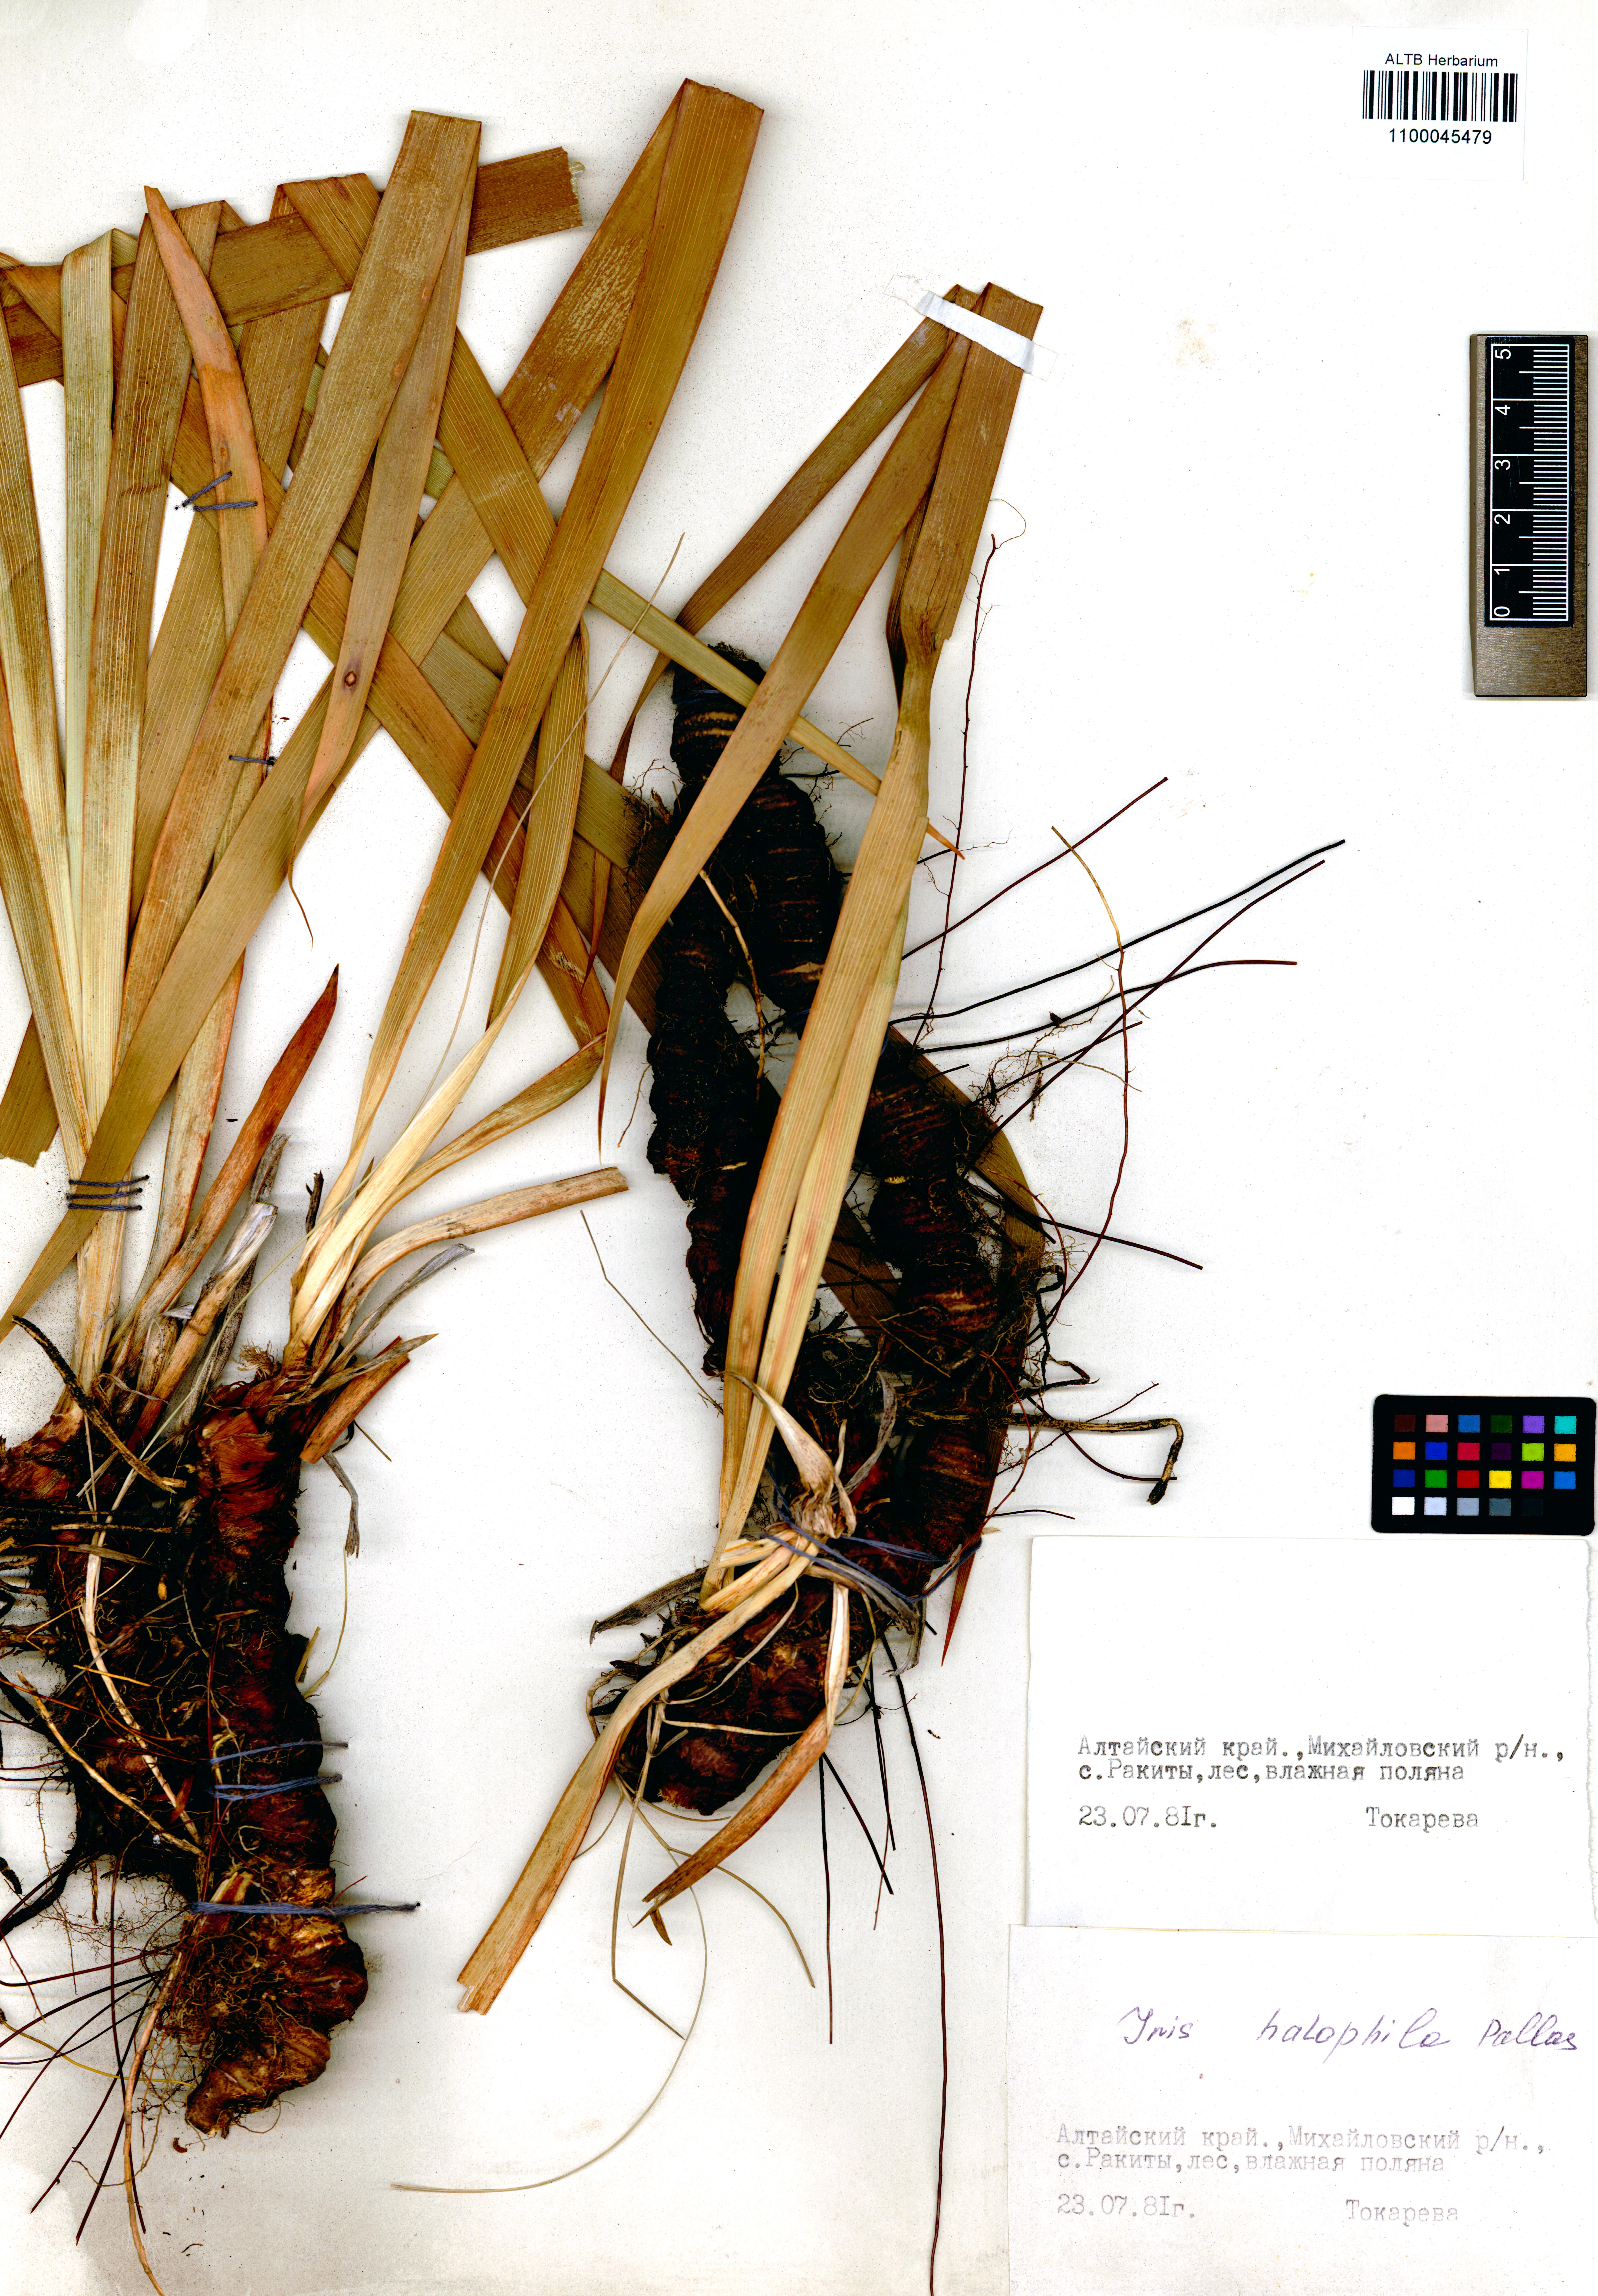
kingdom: Plantae
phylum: Tracheophyta
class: Liliopsida
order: Asparagales
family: Iridaceae
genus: Iris
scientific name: Iris halophila
